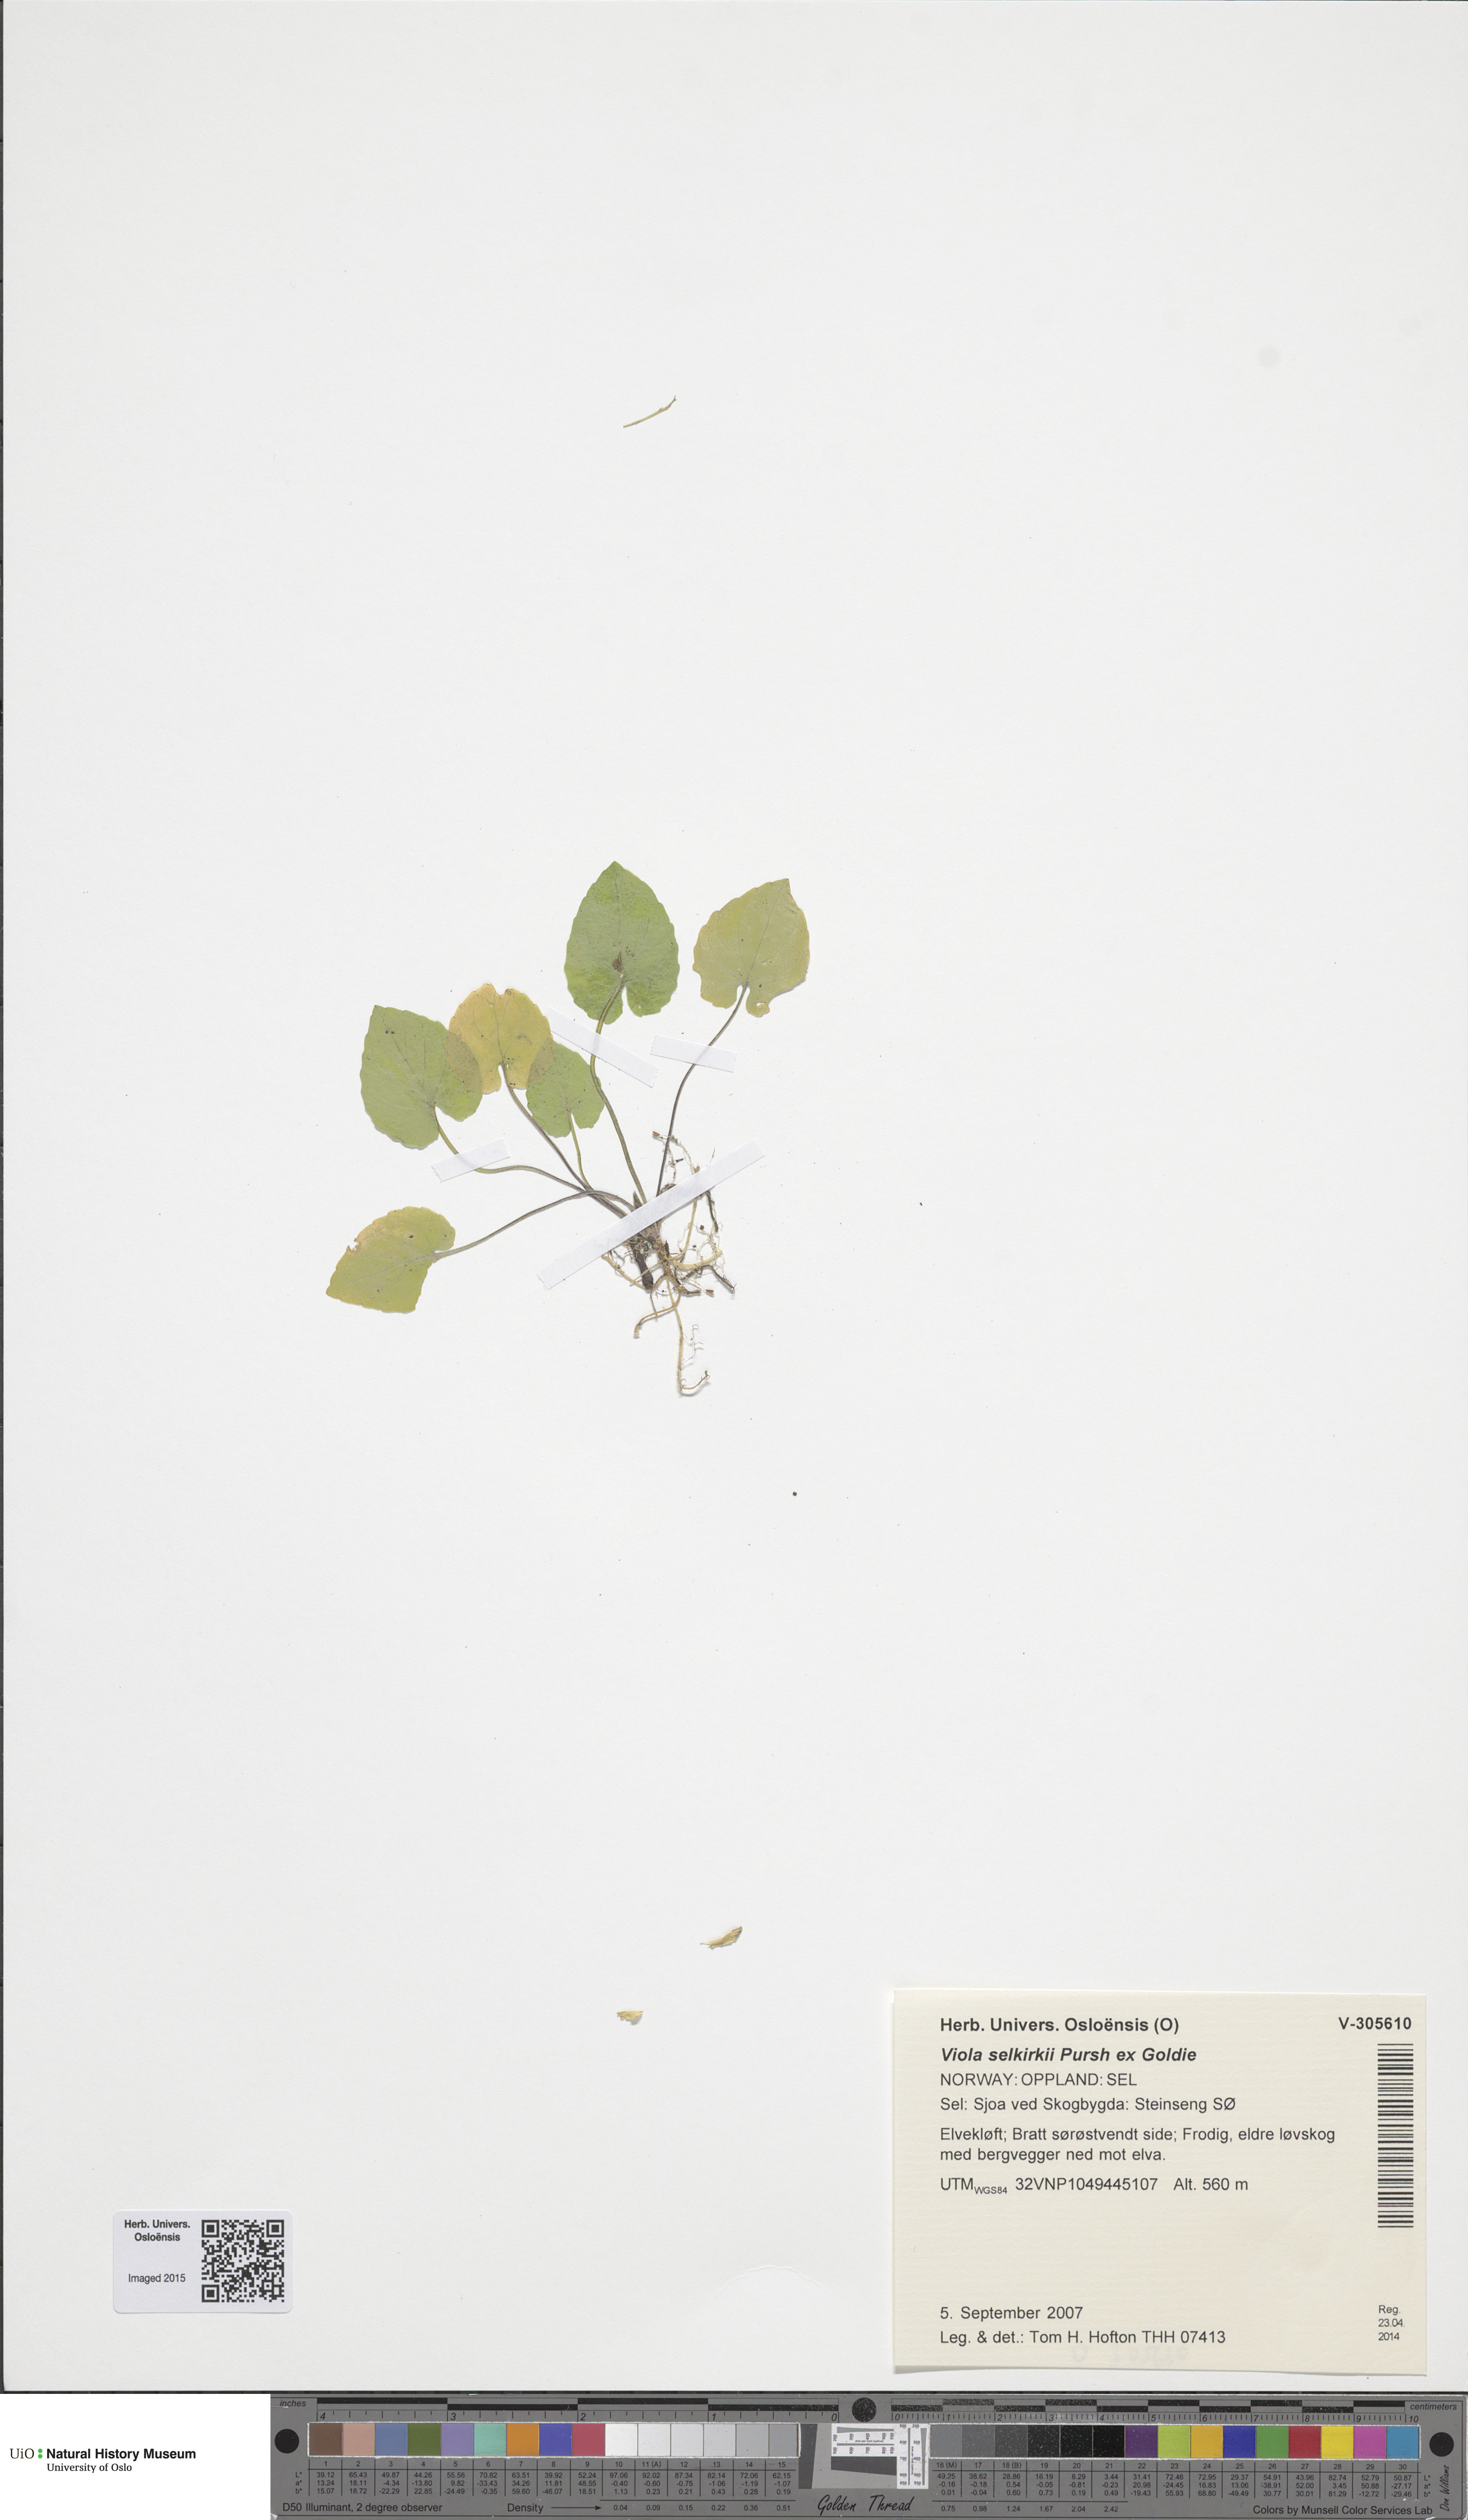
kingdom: Plantae
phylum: Tracheophyta
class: Magnoliopsida
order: Malpighiales
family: Violaceae
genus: Viola
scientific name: Viola selkirkii
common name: Selkirk's violet
